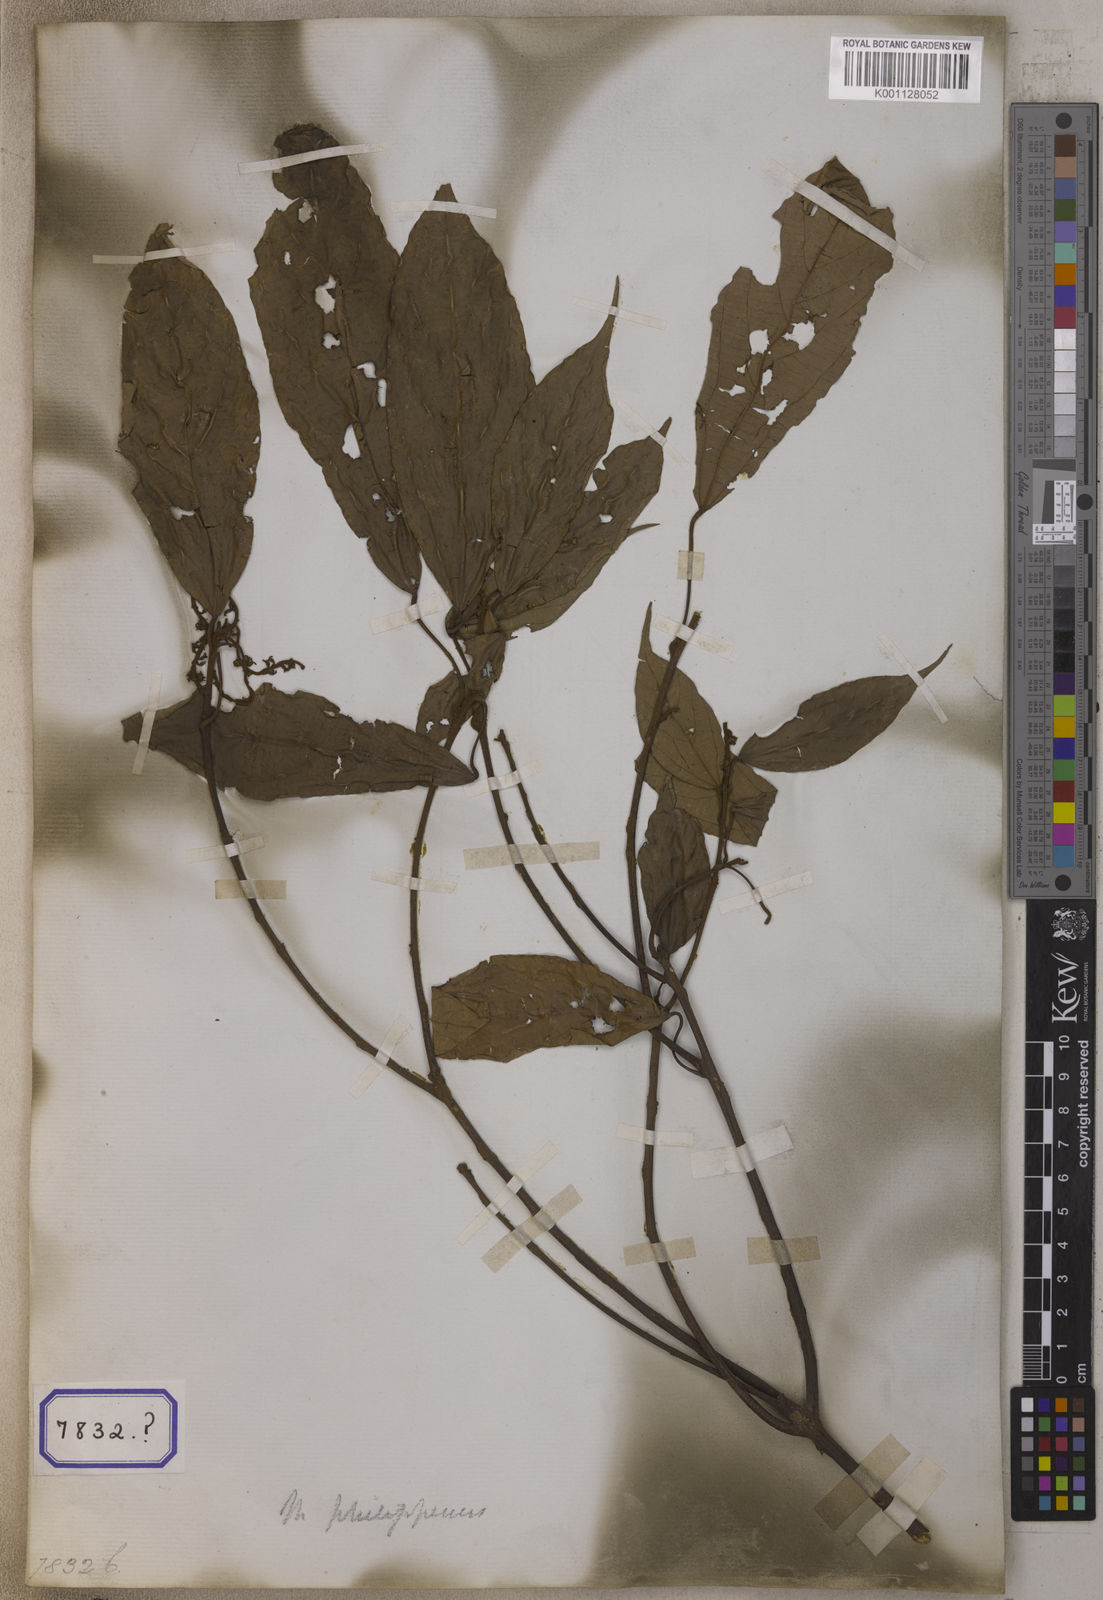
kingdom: Plantae
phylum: Tracheophyta
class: Magnoliopsida
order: Malpighiales
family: Euphorbiaceae
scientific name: Euphorbiaceae
